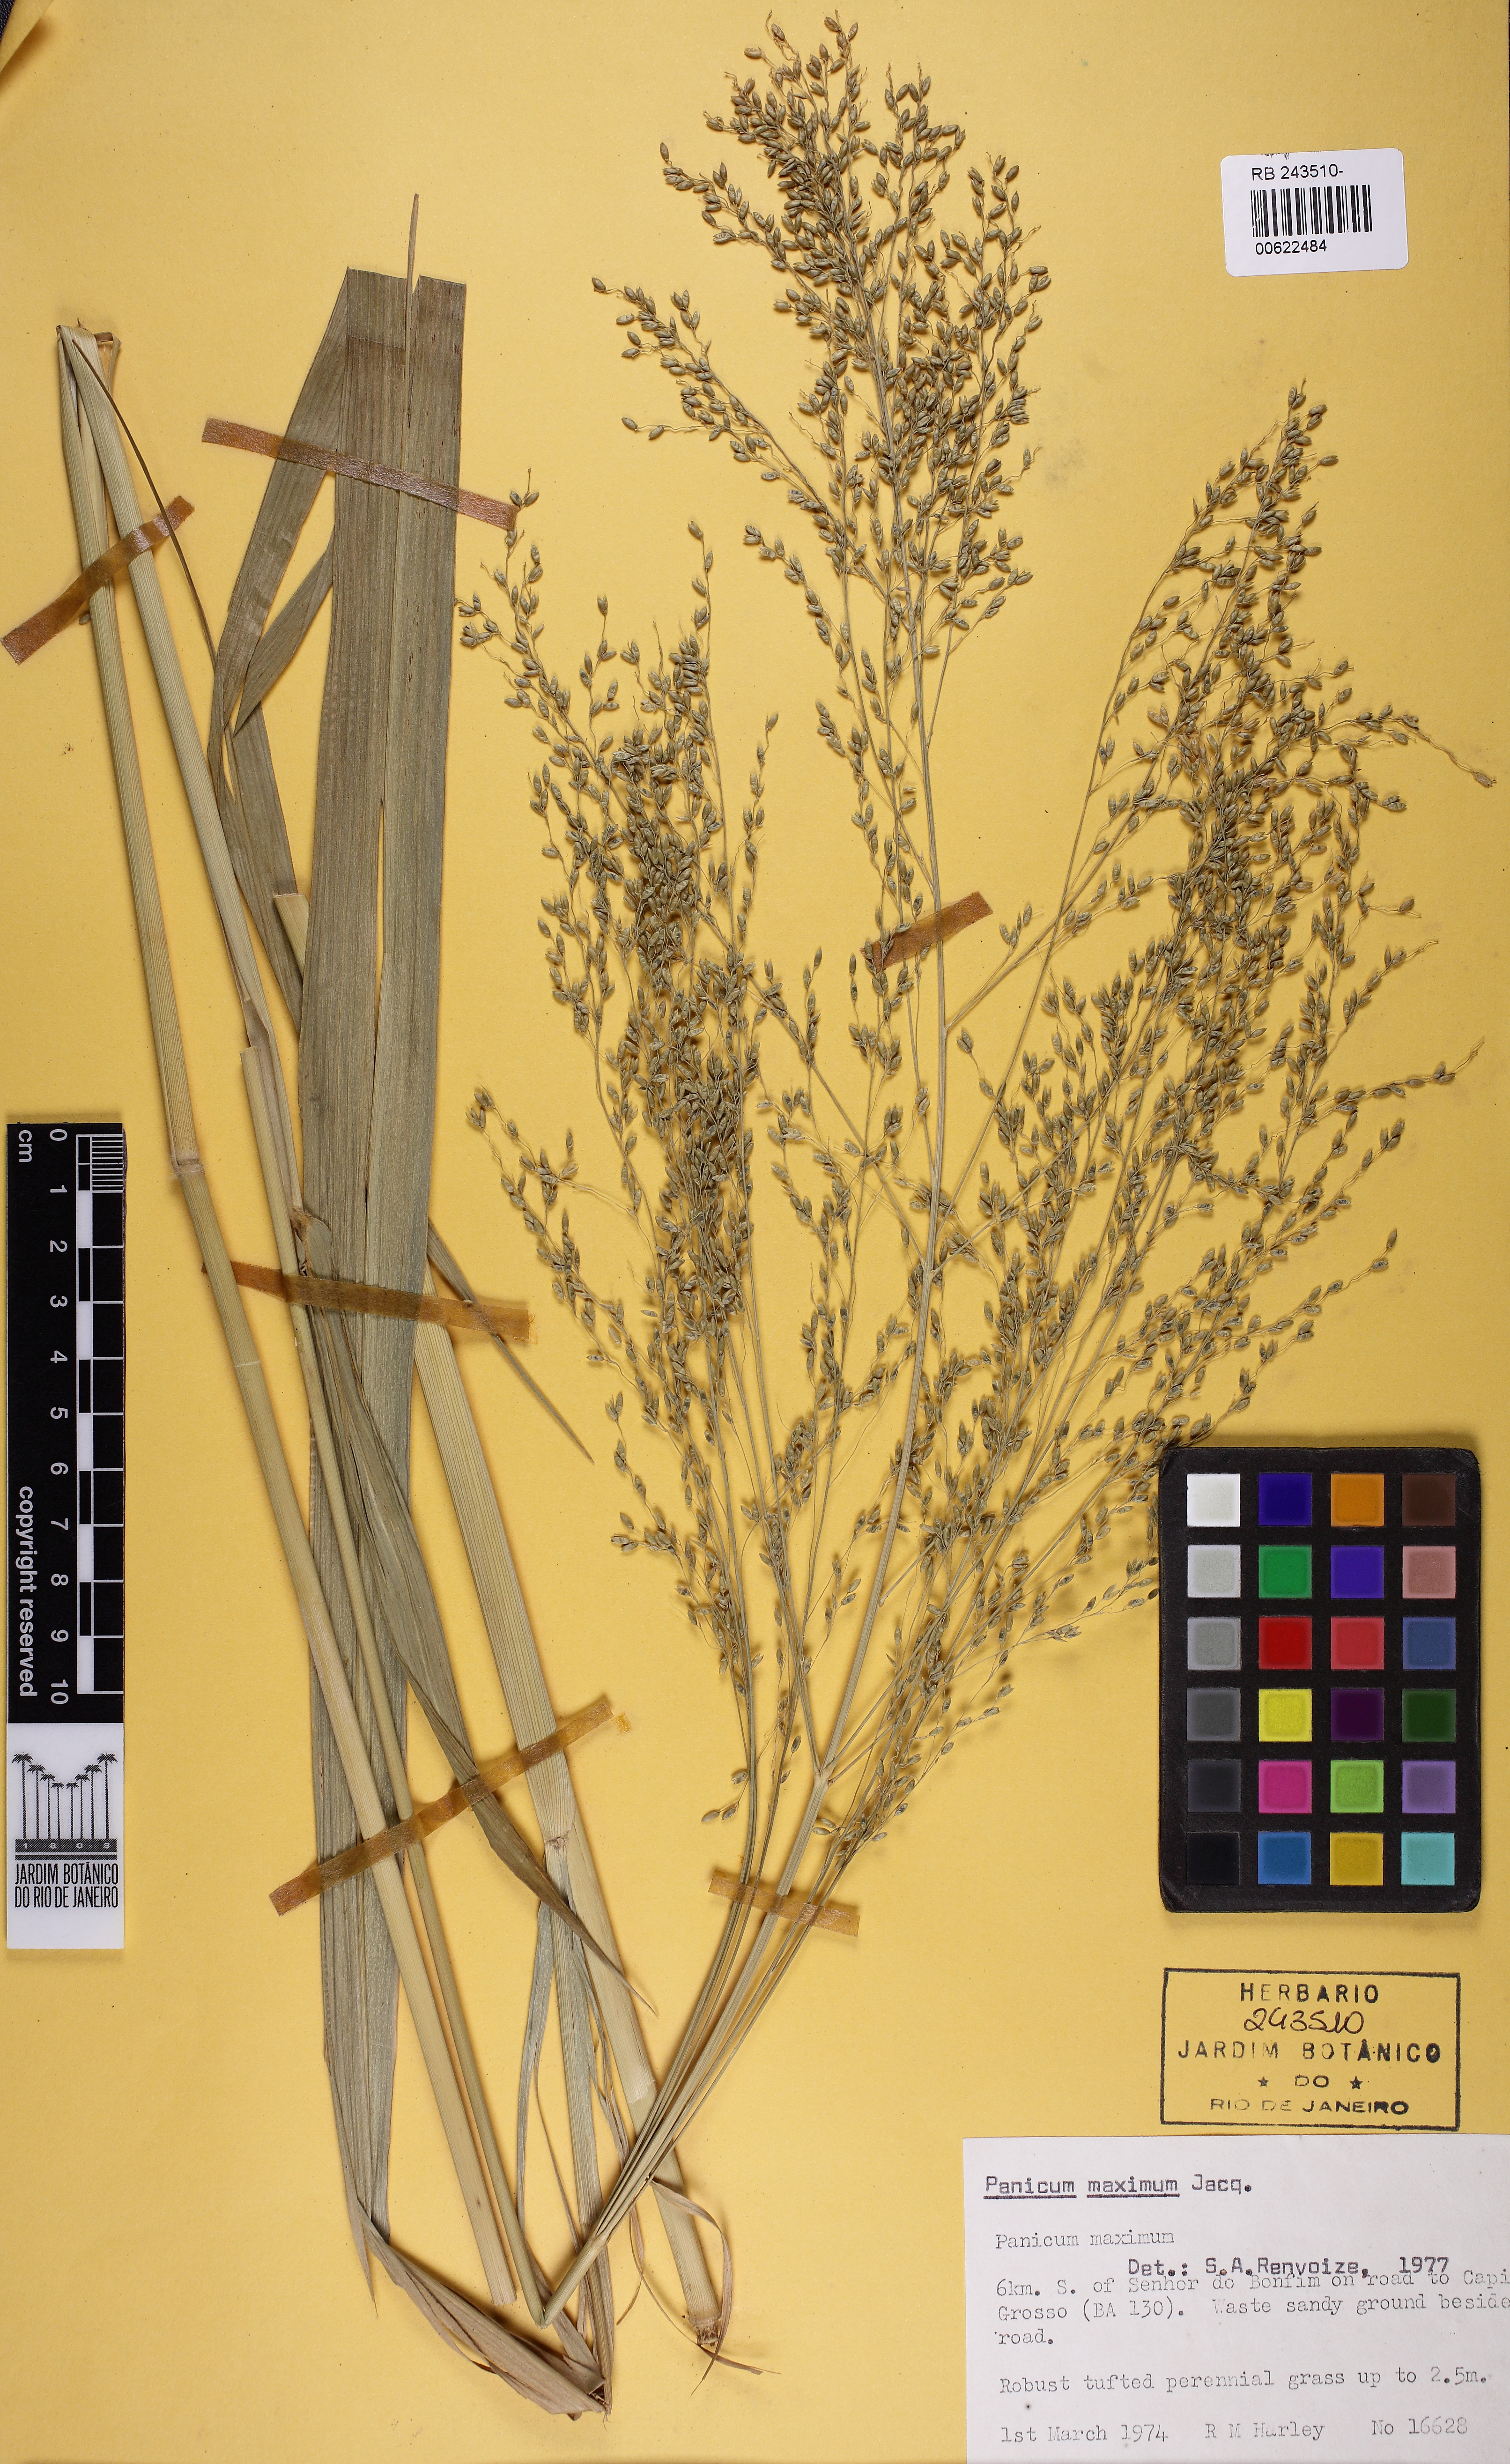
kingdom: Plantae
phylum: Tracheophyta
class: Liliopsida
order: Poales
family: Poaceae
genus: Megathyrsus
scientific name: Megathyrsus maximus
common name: Guineagrass
